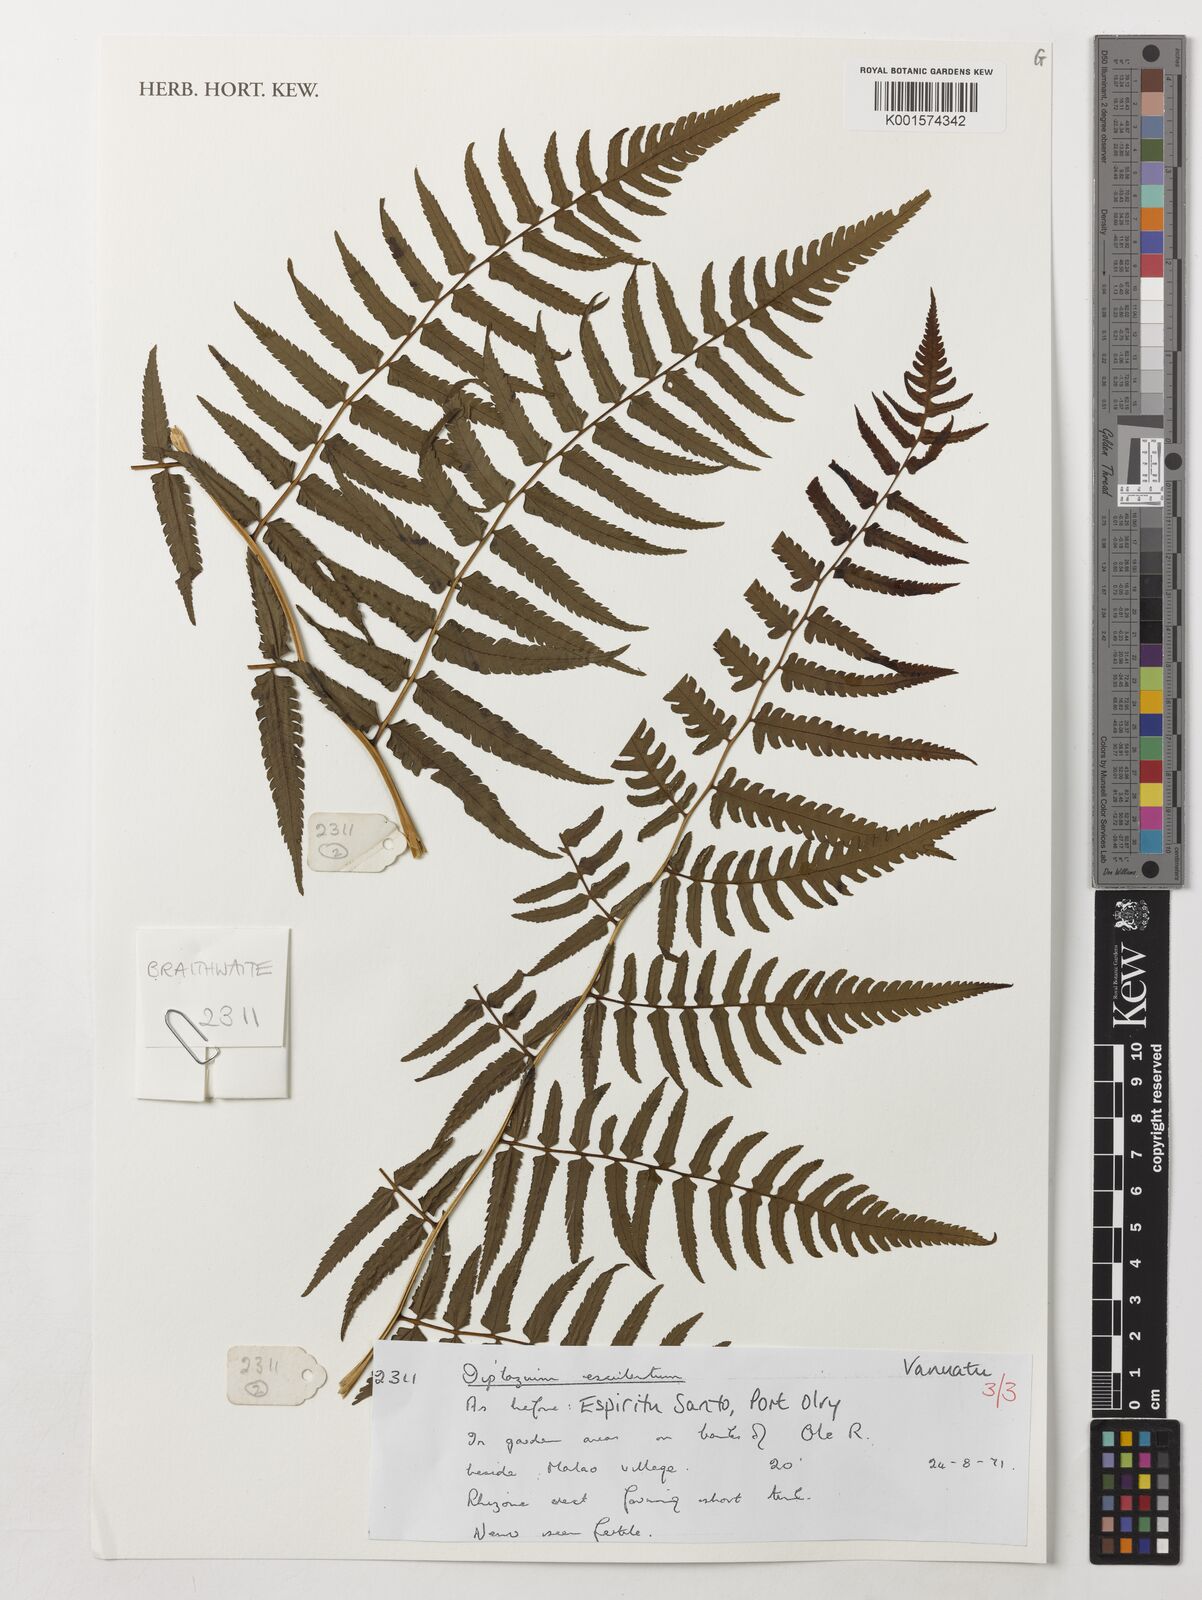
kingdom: Plantae
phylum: Tracheophyta
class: Polypodiopsida
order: Polypodiales
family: Athyriaceae
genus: Diplazium
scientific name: Diplazium esculentum
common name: Vegetable fern
